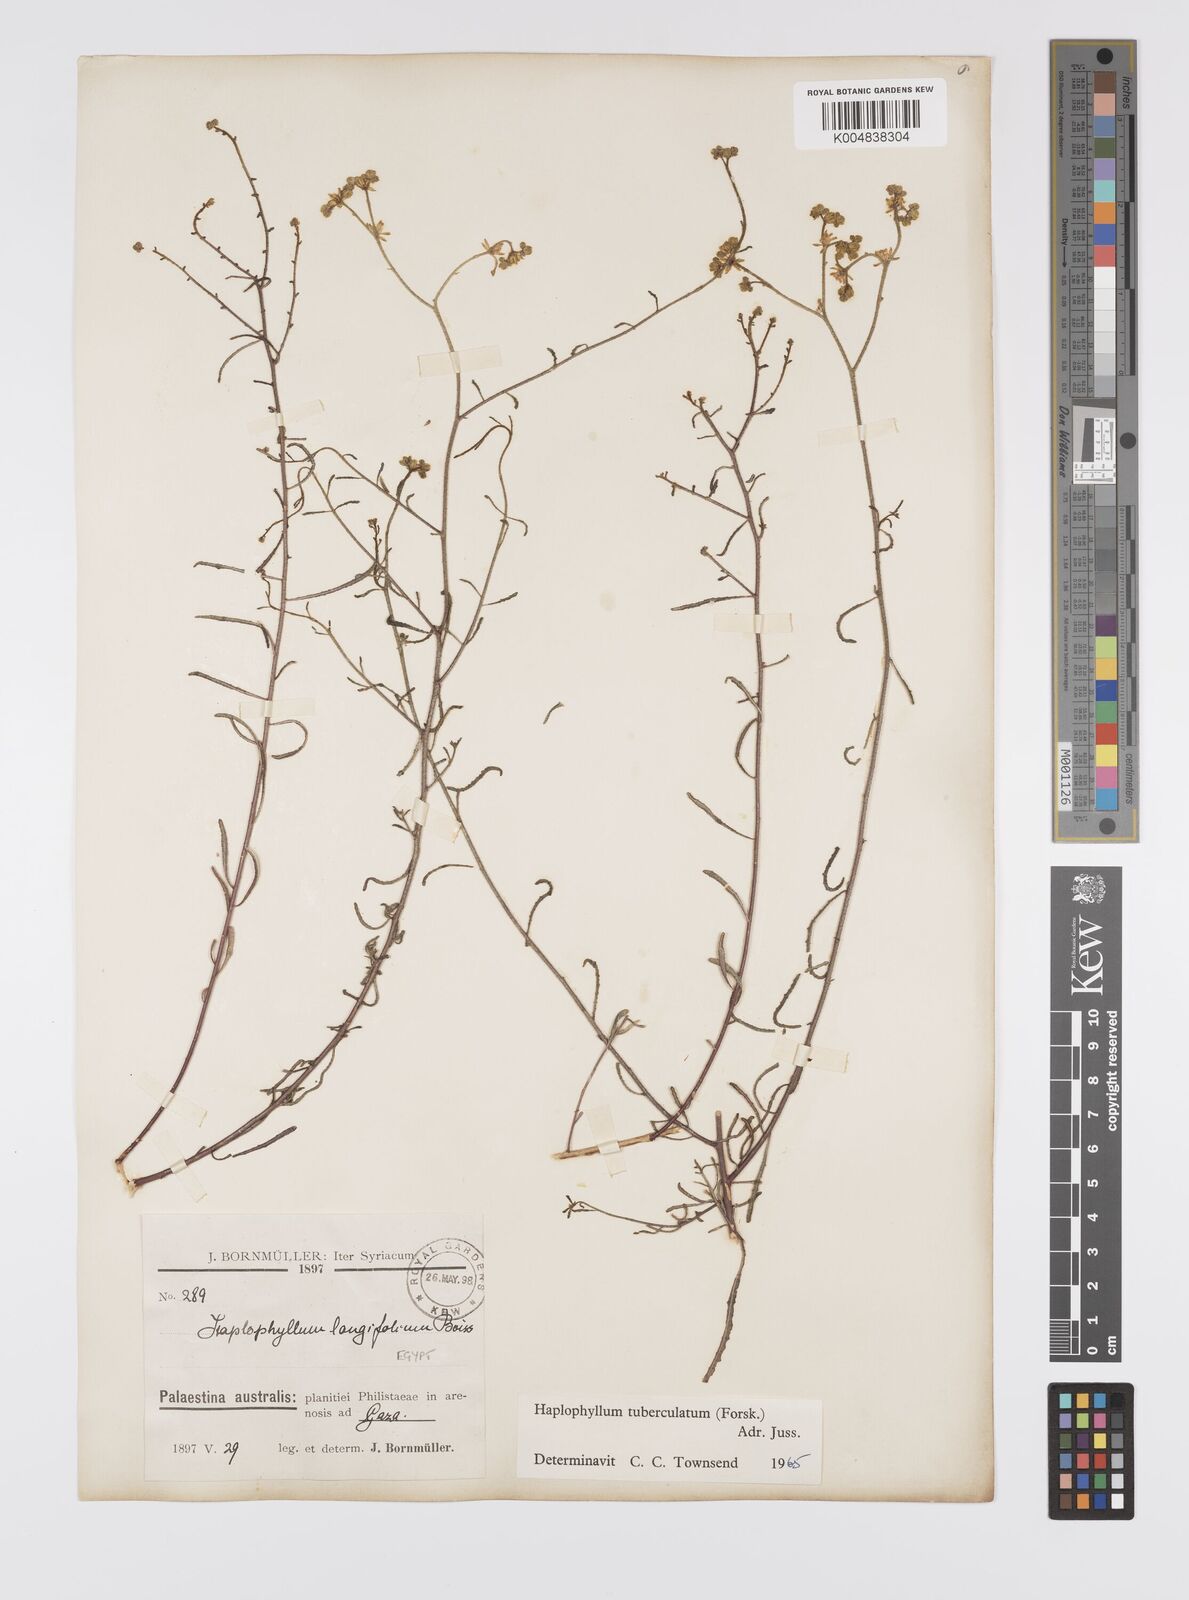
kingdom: Plantae
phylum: Tracheophyta
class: Magnoliopsida
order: Sapindales
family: Rutaceae
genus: Haplophyllum
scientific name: Haplophyllum tuberculatum
